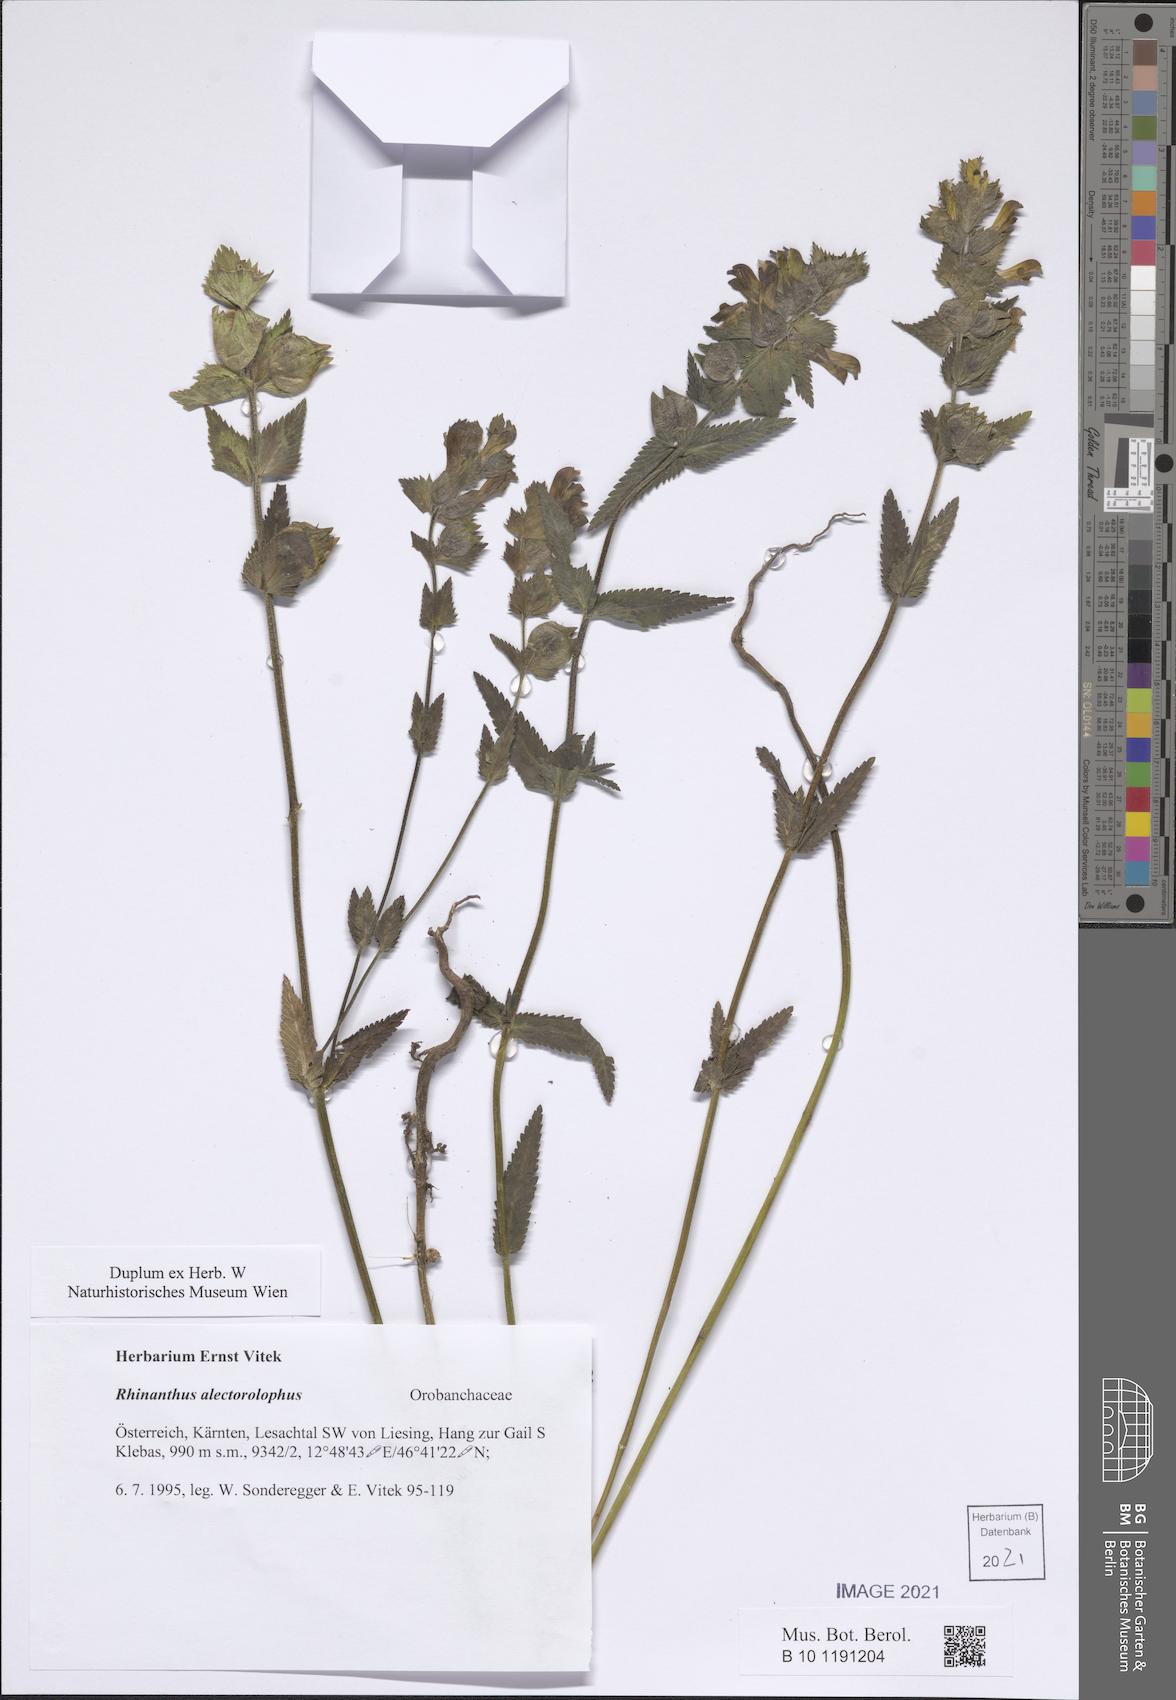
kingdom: Plantae
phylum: Tracheophyta
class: Magnoliopsida
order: Lamiales
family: Orobanchaceae
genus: Rhinanthus
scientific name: Rhinanthus alectorolophus
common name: Greater yellow-rattle
